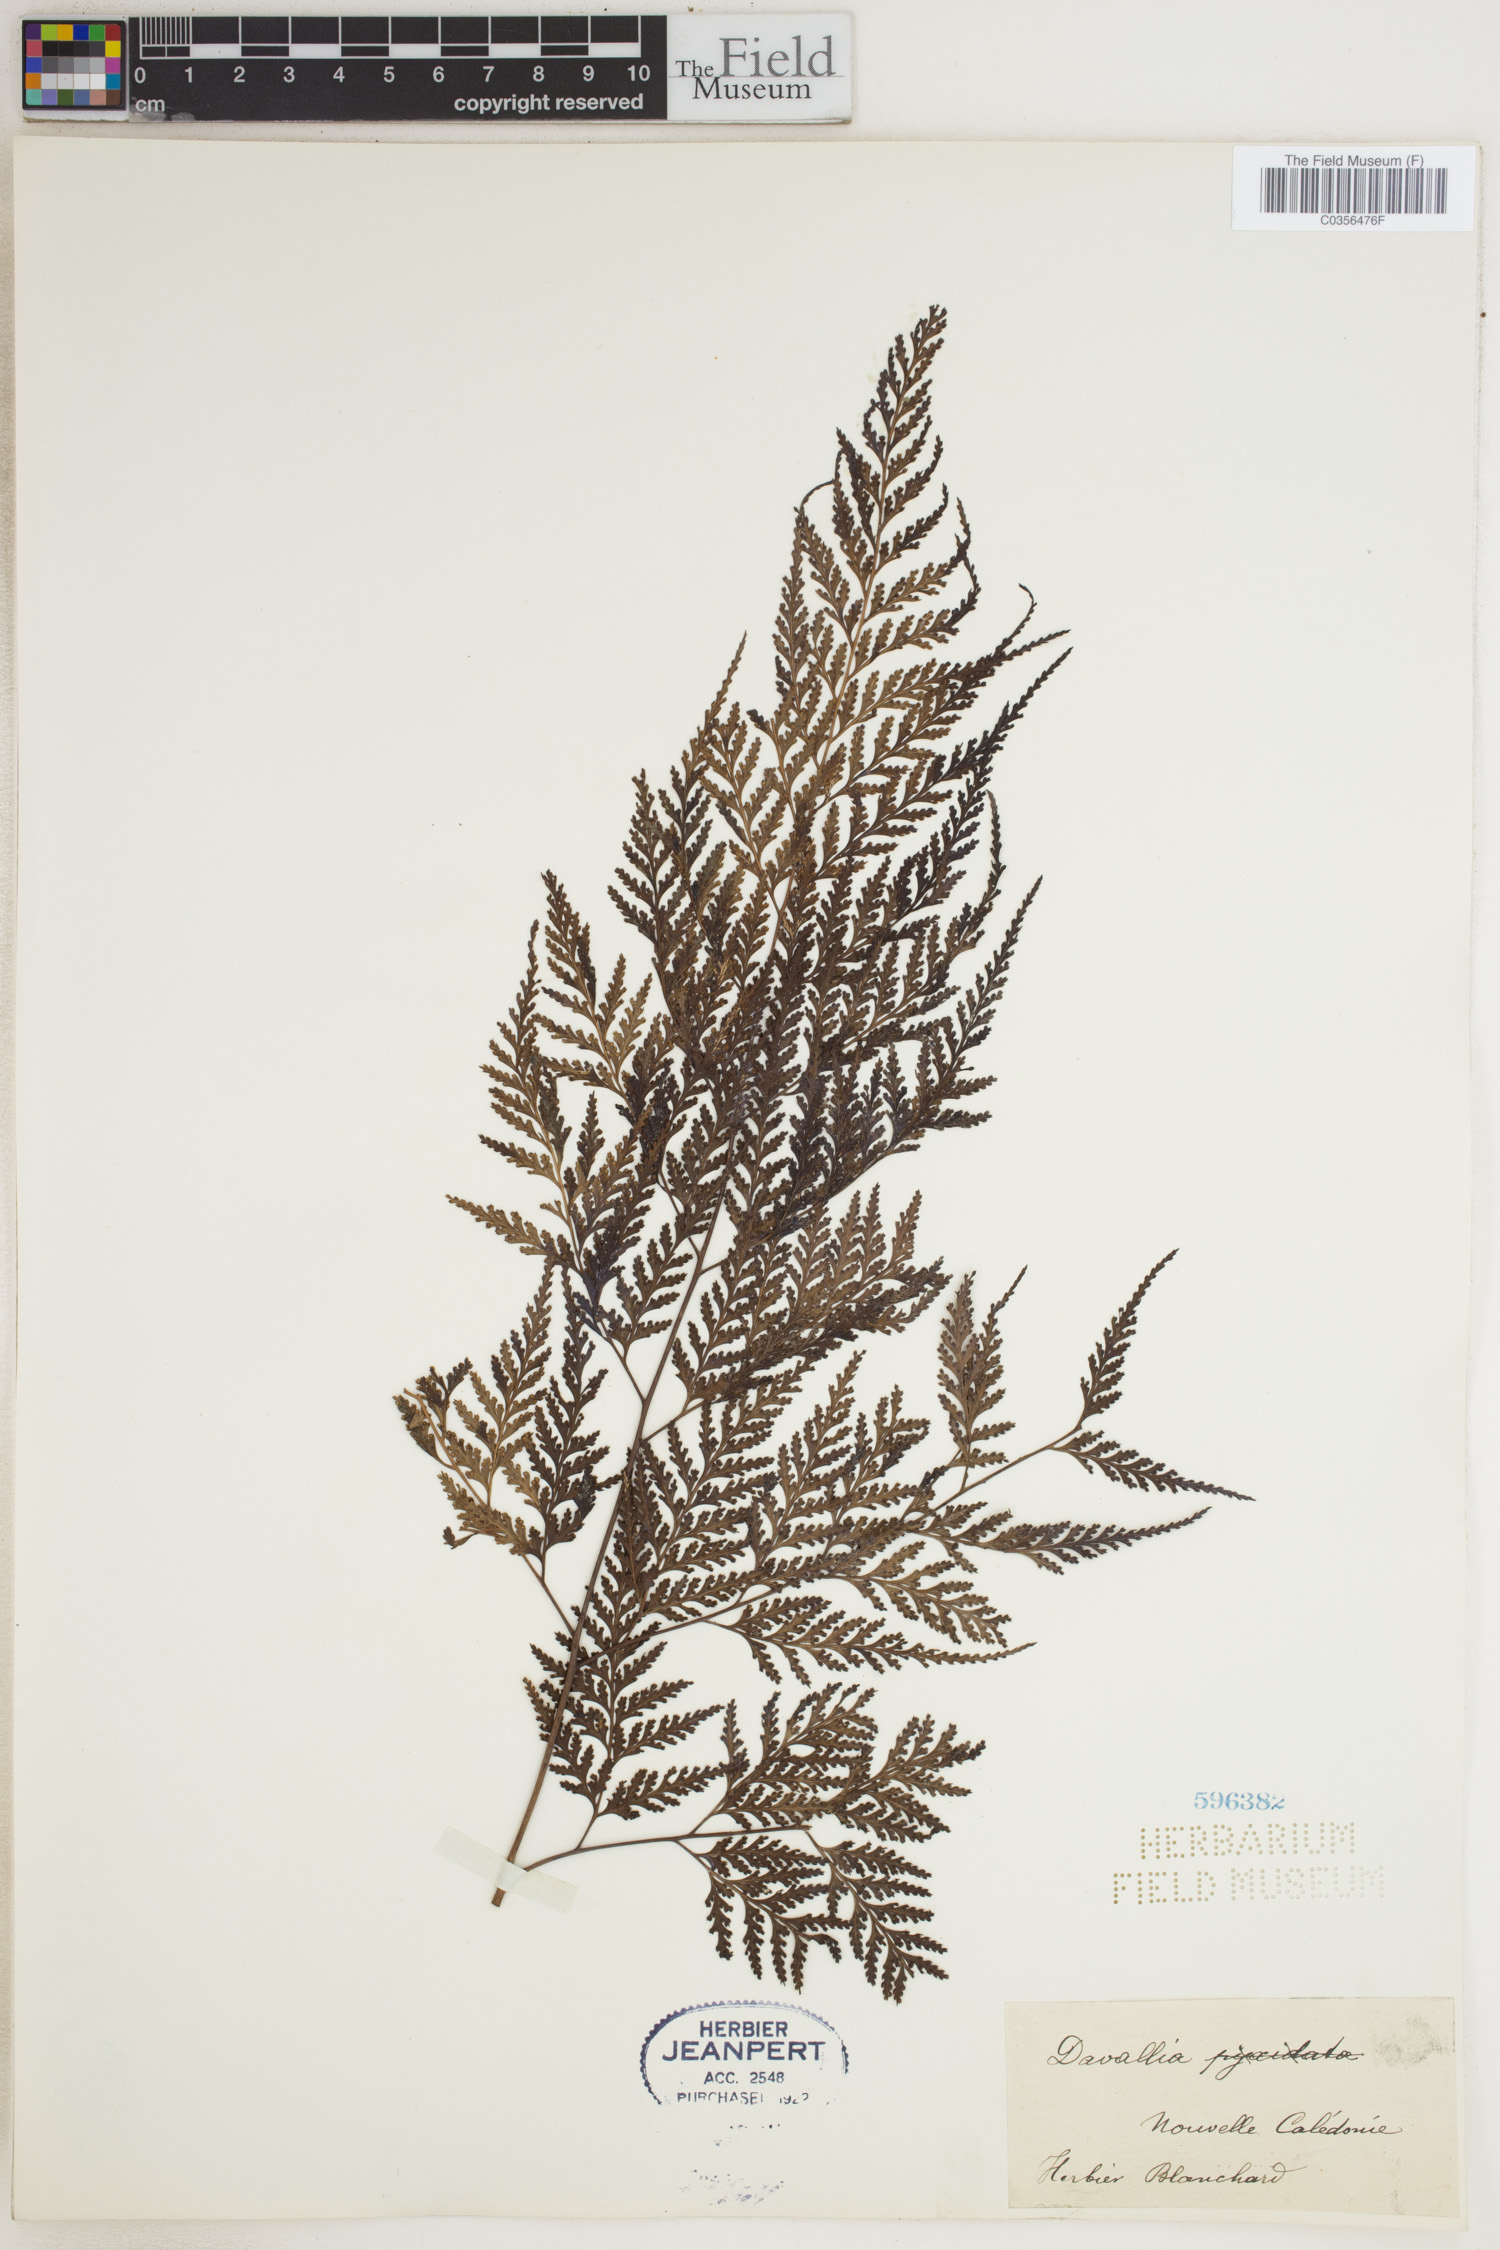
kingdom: Plantae
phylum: Tracheophyta
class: Polypodiopsida
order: Polypodiales
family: Davalliaceae
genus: Davallia
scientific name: Davallia
